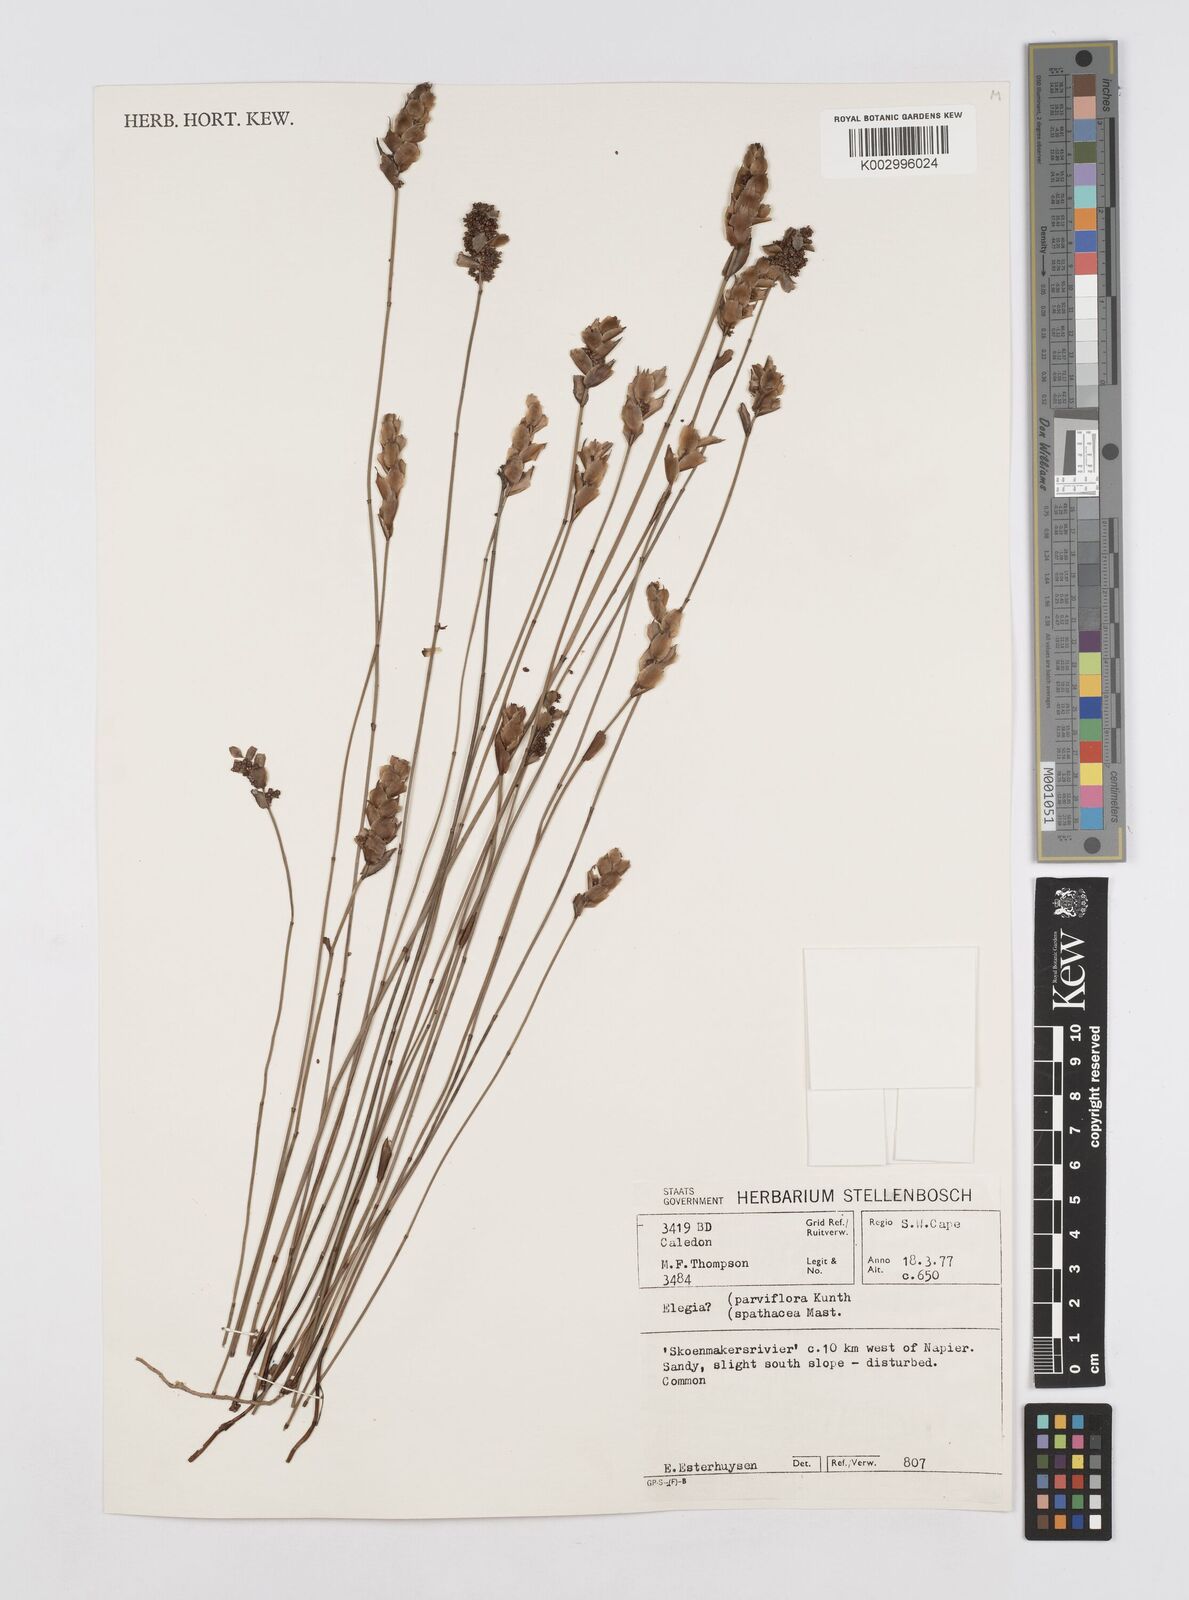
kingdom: Plantae
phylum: Tracheophyta
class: Liliopsida
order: Poales
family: Restionaceae
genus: Cannomois
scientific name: Cannomois parviflora
